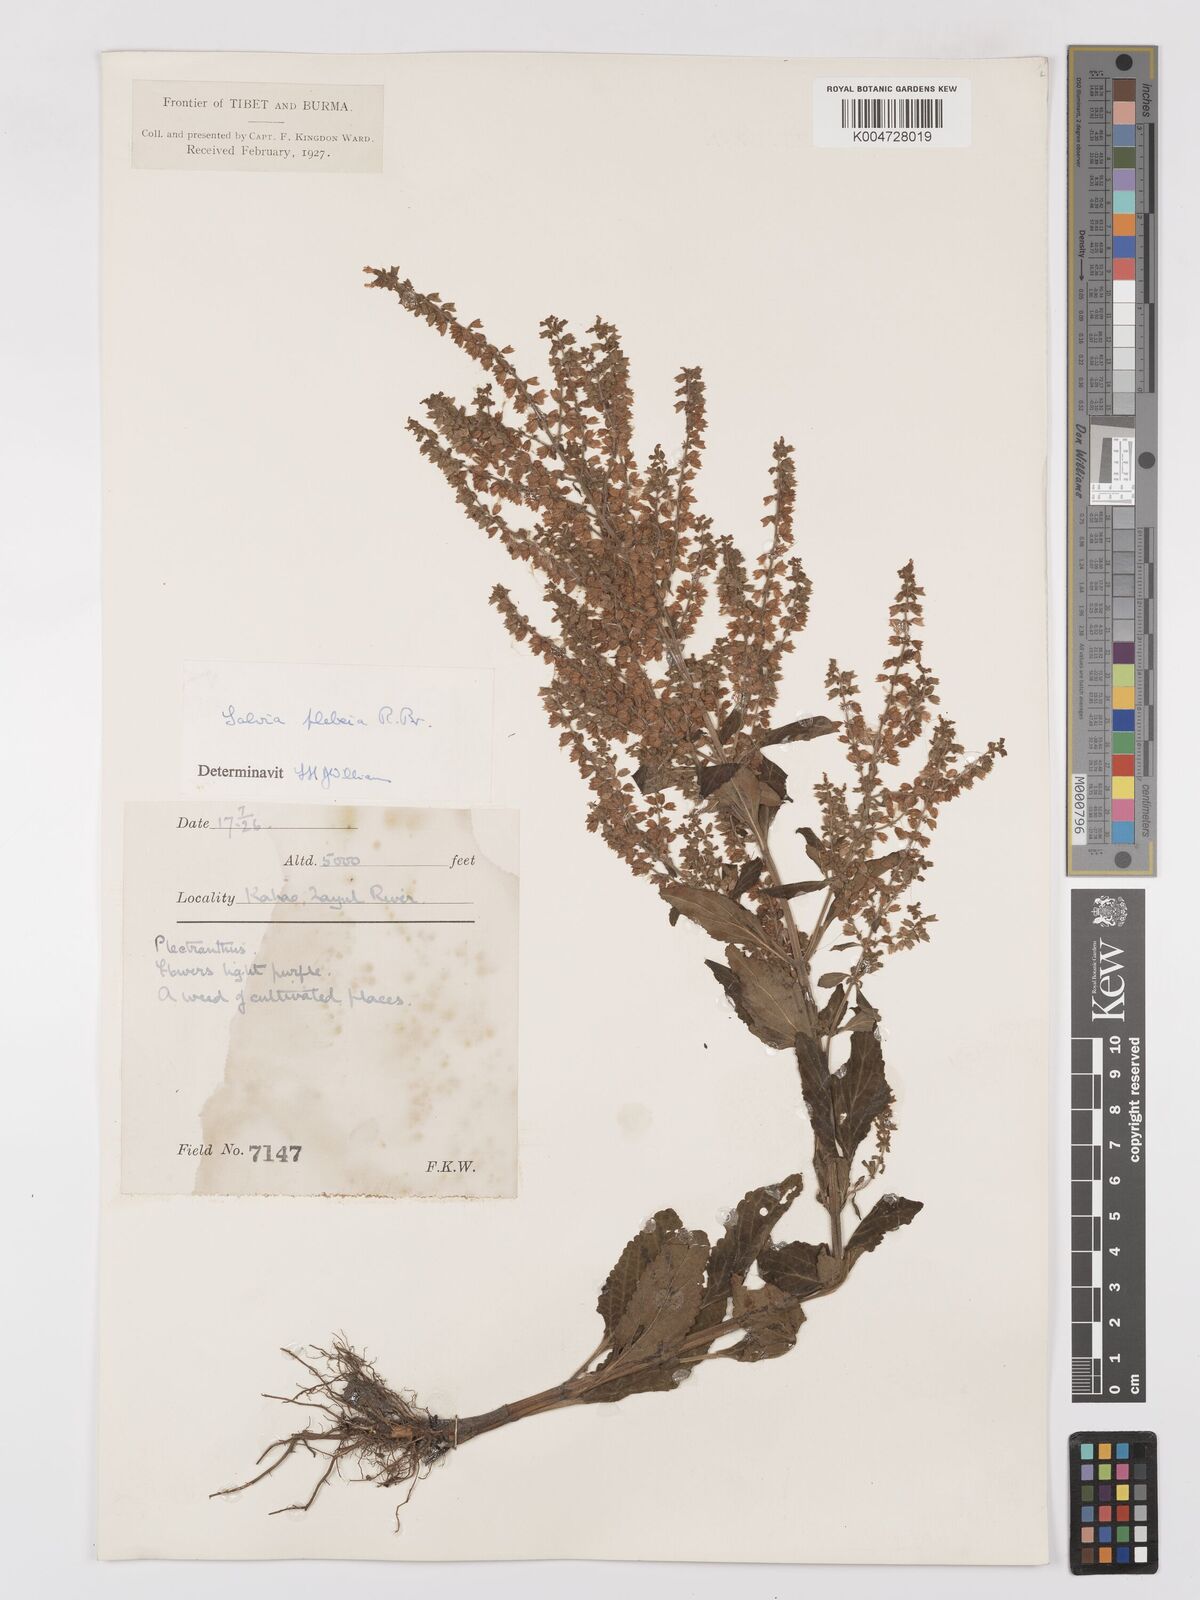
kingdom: Plantae
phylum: Tracheophyta
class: Magnoliopsida
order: Lamiales
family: Lamiaceae
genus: Salvia
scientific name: Salvia plebeia
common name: Australian sage
